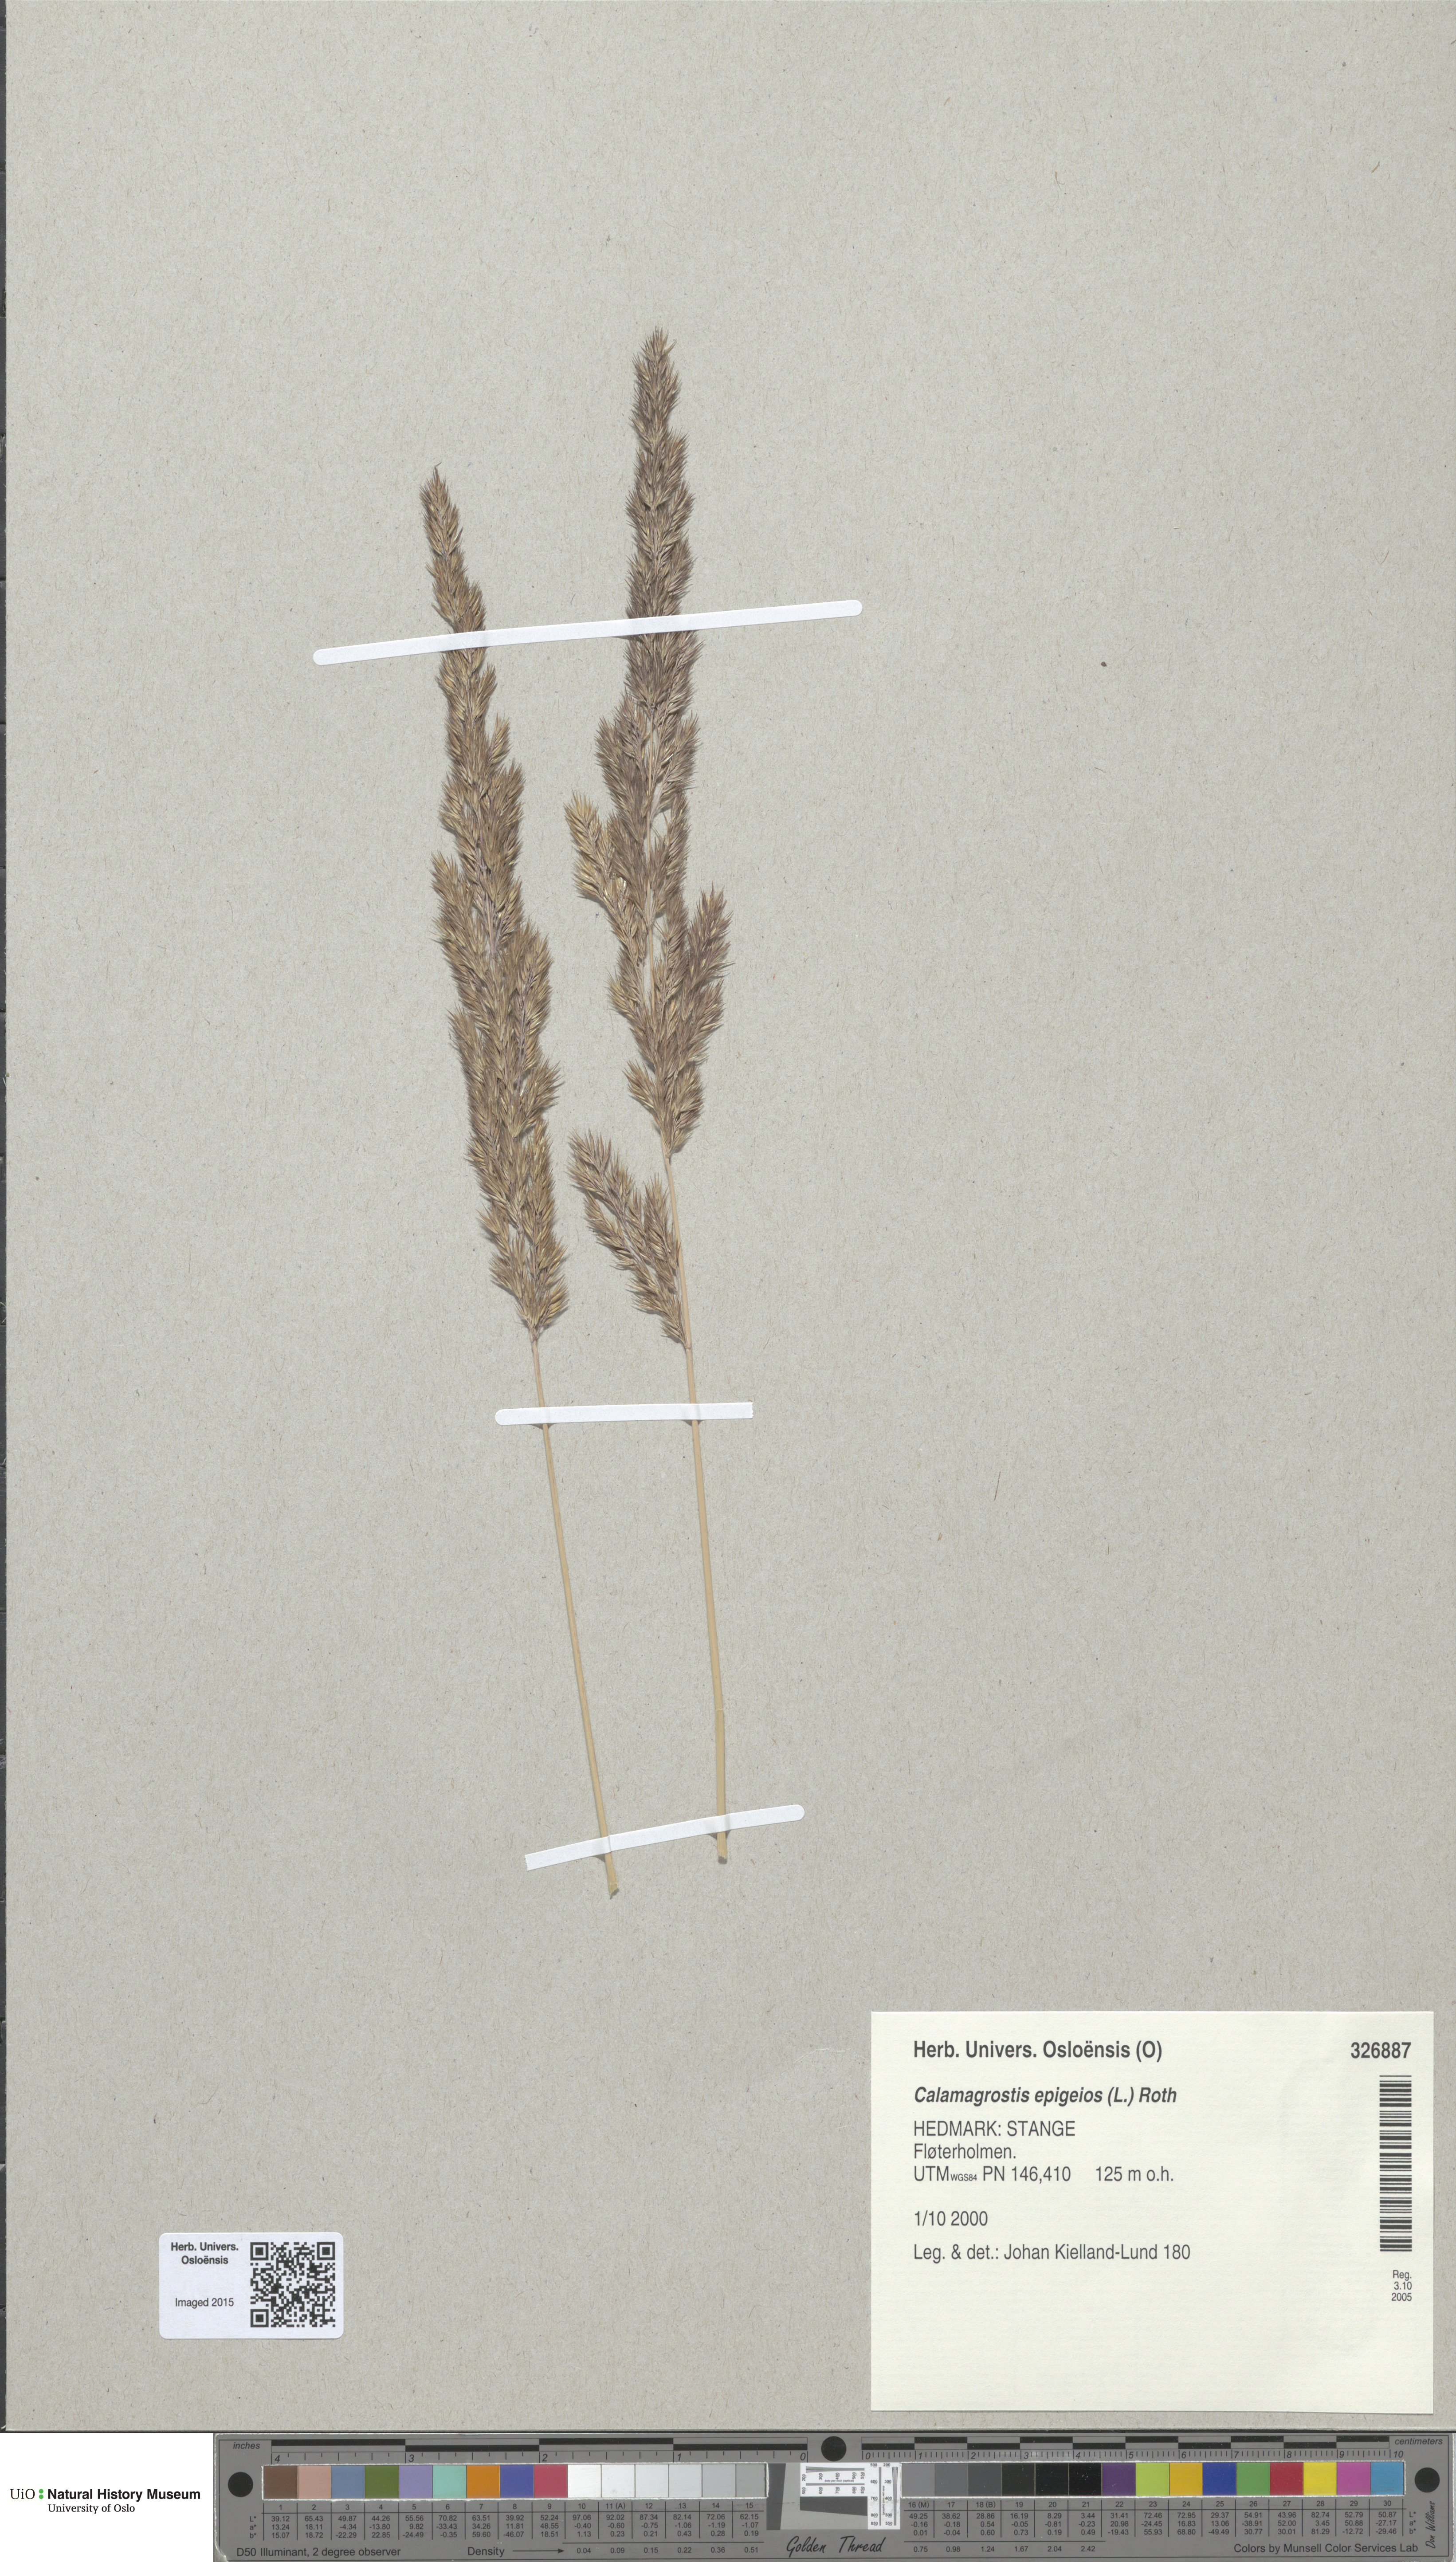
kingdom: Plantae
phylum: Tracheophyta
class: Liliopsida
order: Poales
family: Poaceae
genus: Calamagrostis
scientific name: Calamagrostis epigejos
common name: Wood small-reed
